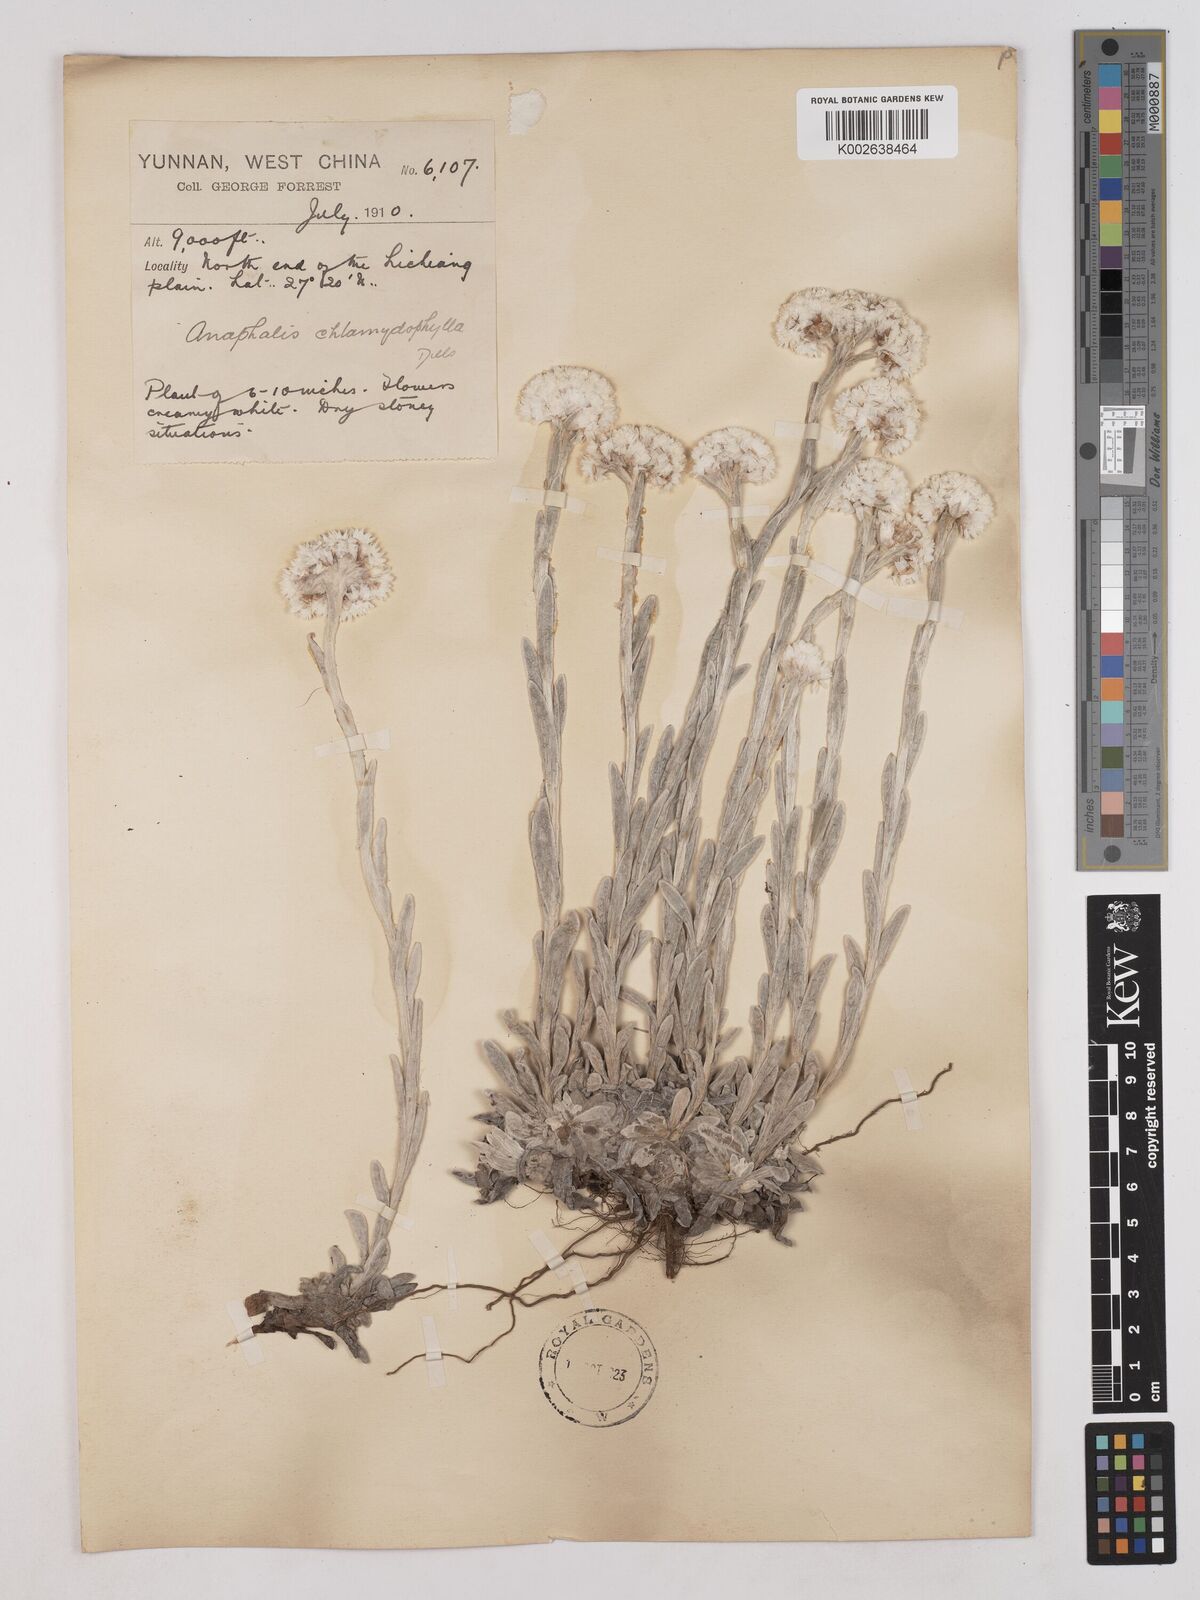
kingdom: Plantae
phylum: Tracheophyta
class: Magnoliopsida
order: Asterales
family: Asteraceae
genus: Anaphalis
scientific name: Anaphalis chlamydophylla
